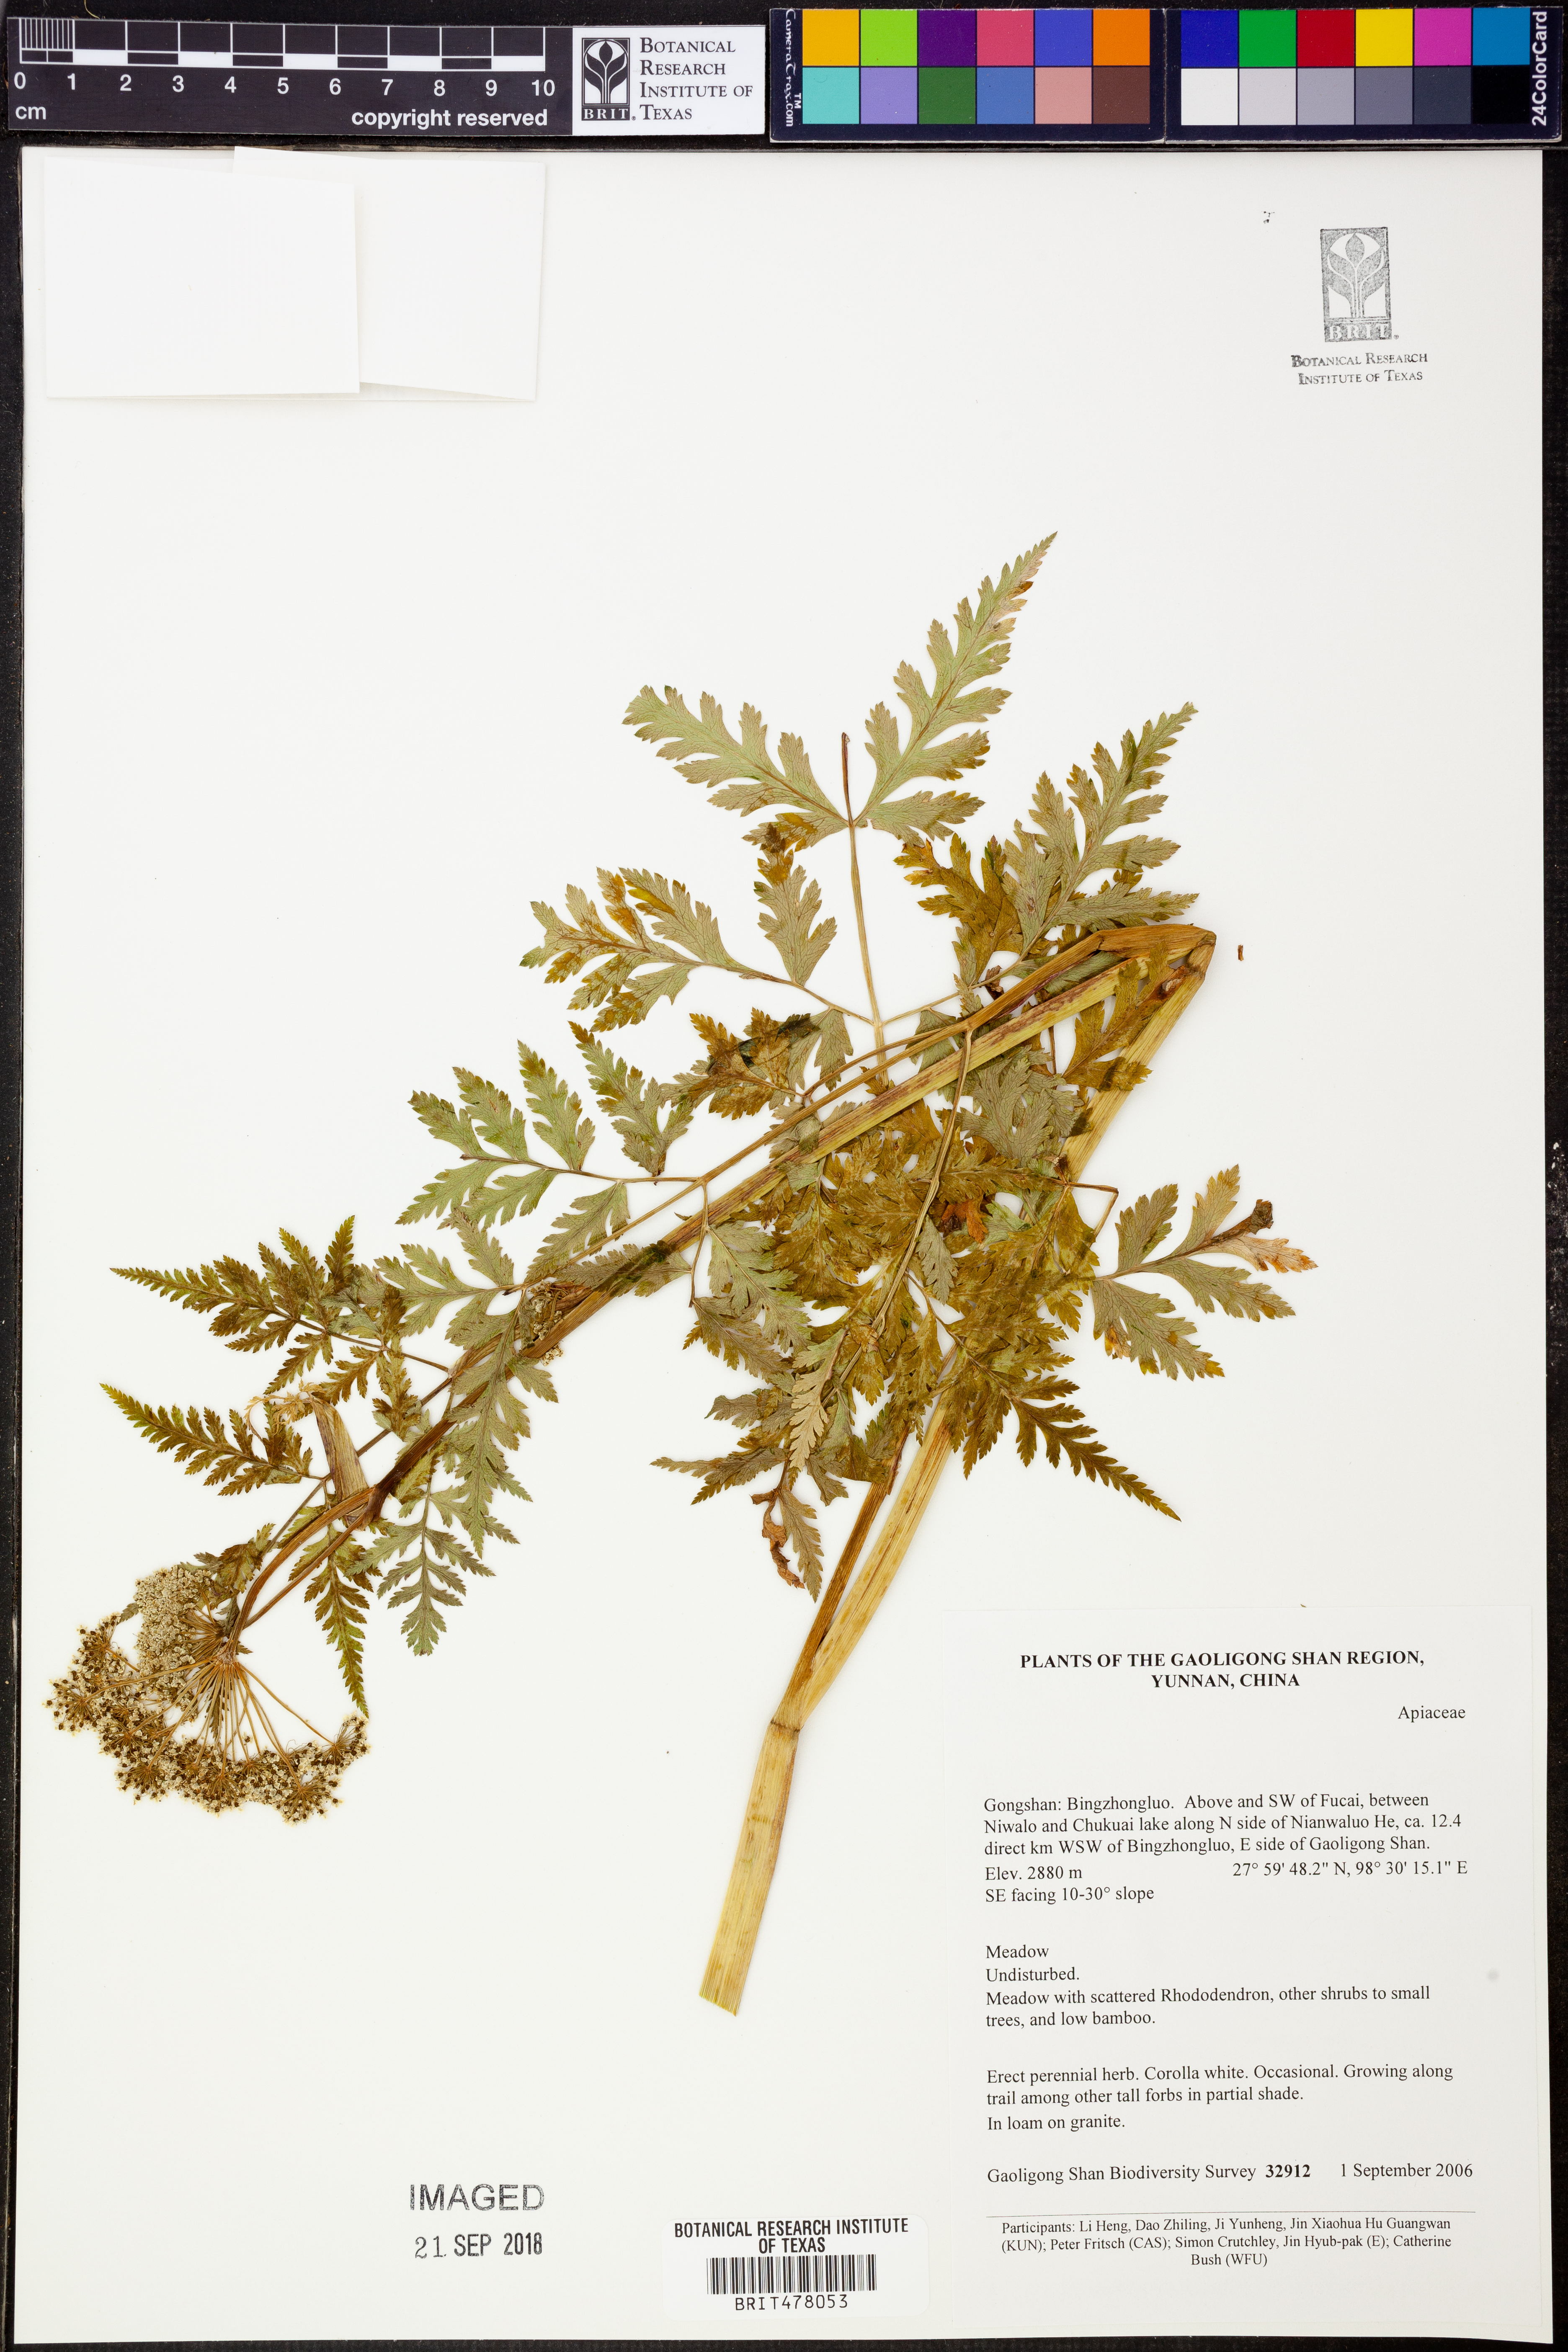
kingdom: Plantae
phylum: Tracheophyta
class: Magnoliopsida
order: Apiales
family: Apiaceae
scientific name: Apiaceae
